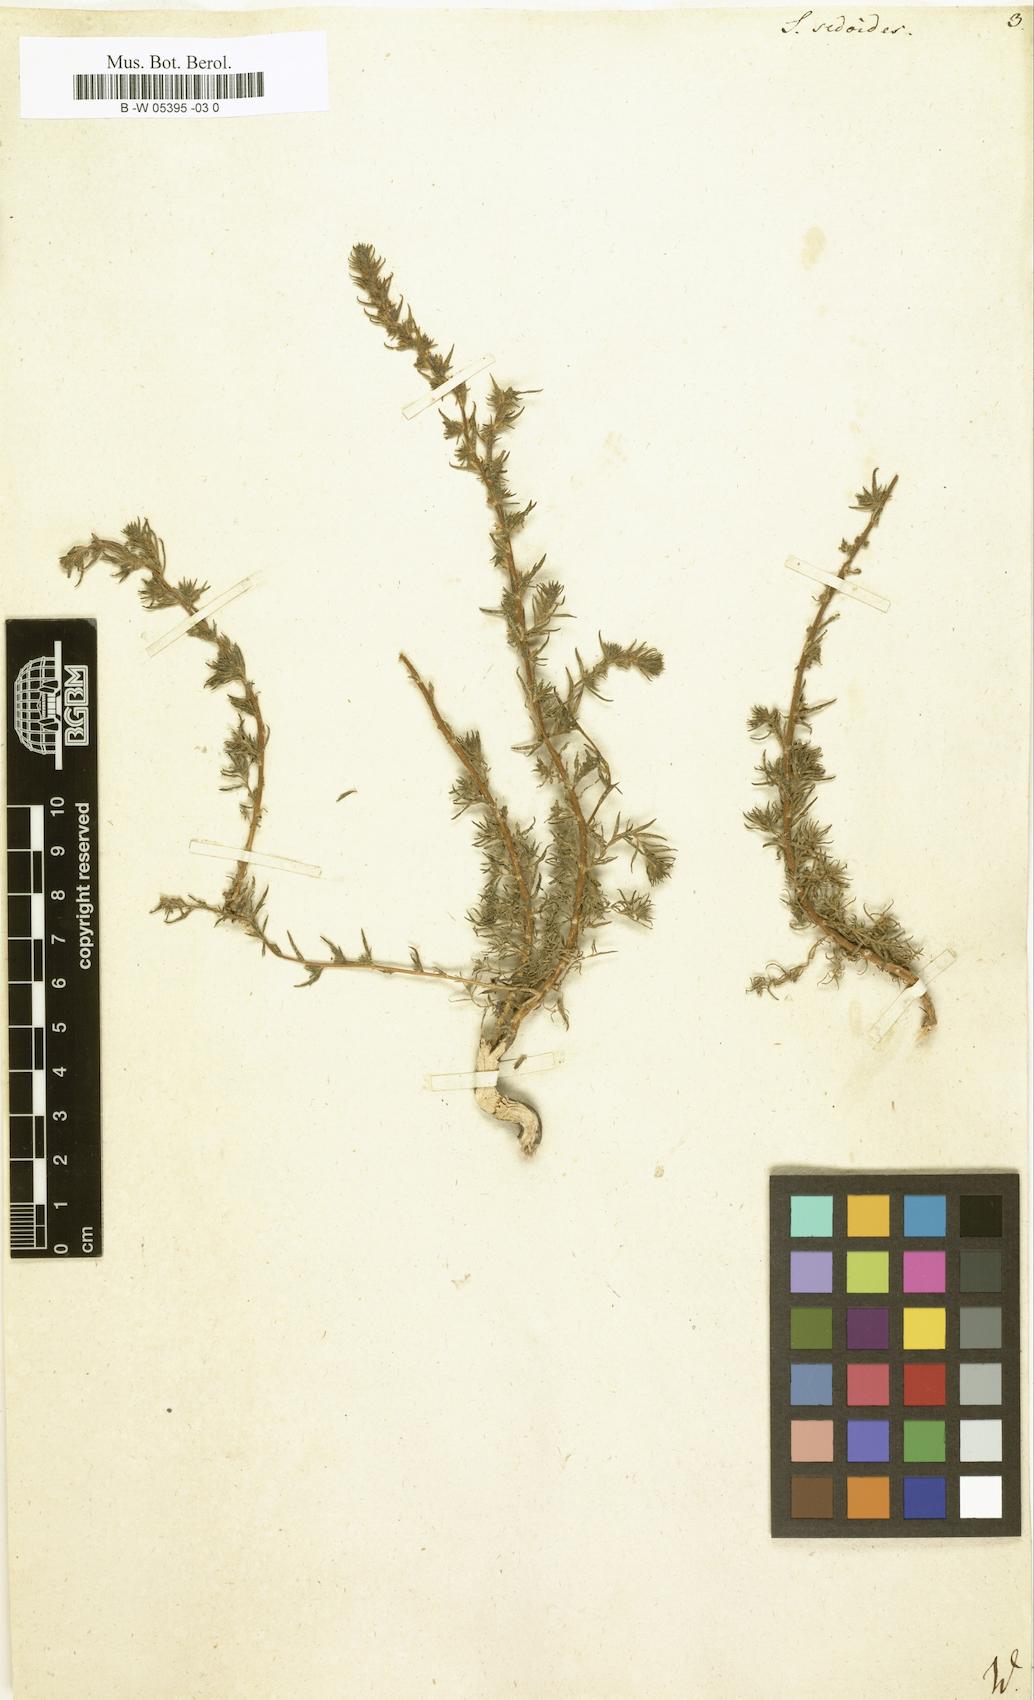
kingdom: Plantae
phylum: Tracheophyta
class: Magnoliopsida
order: Caryophyllales
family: Amaranthaceae
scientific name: Amaranthaceae
